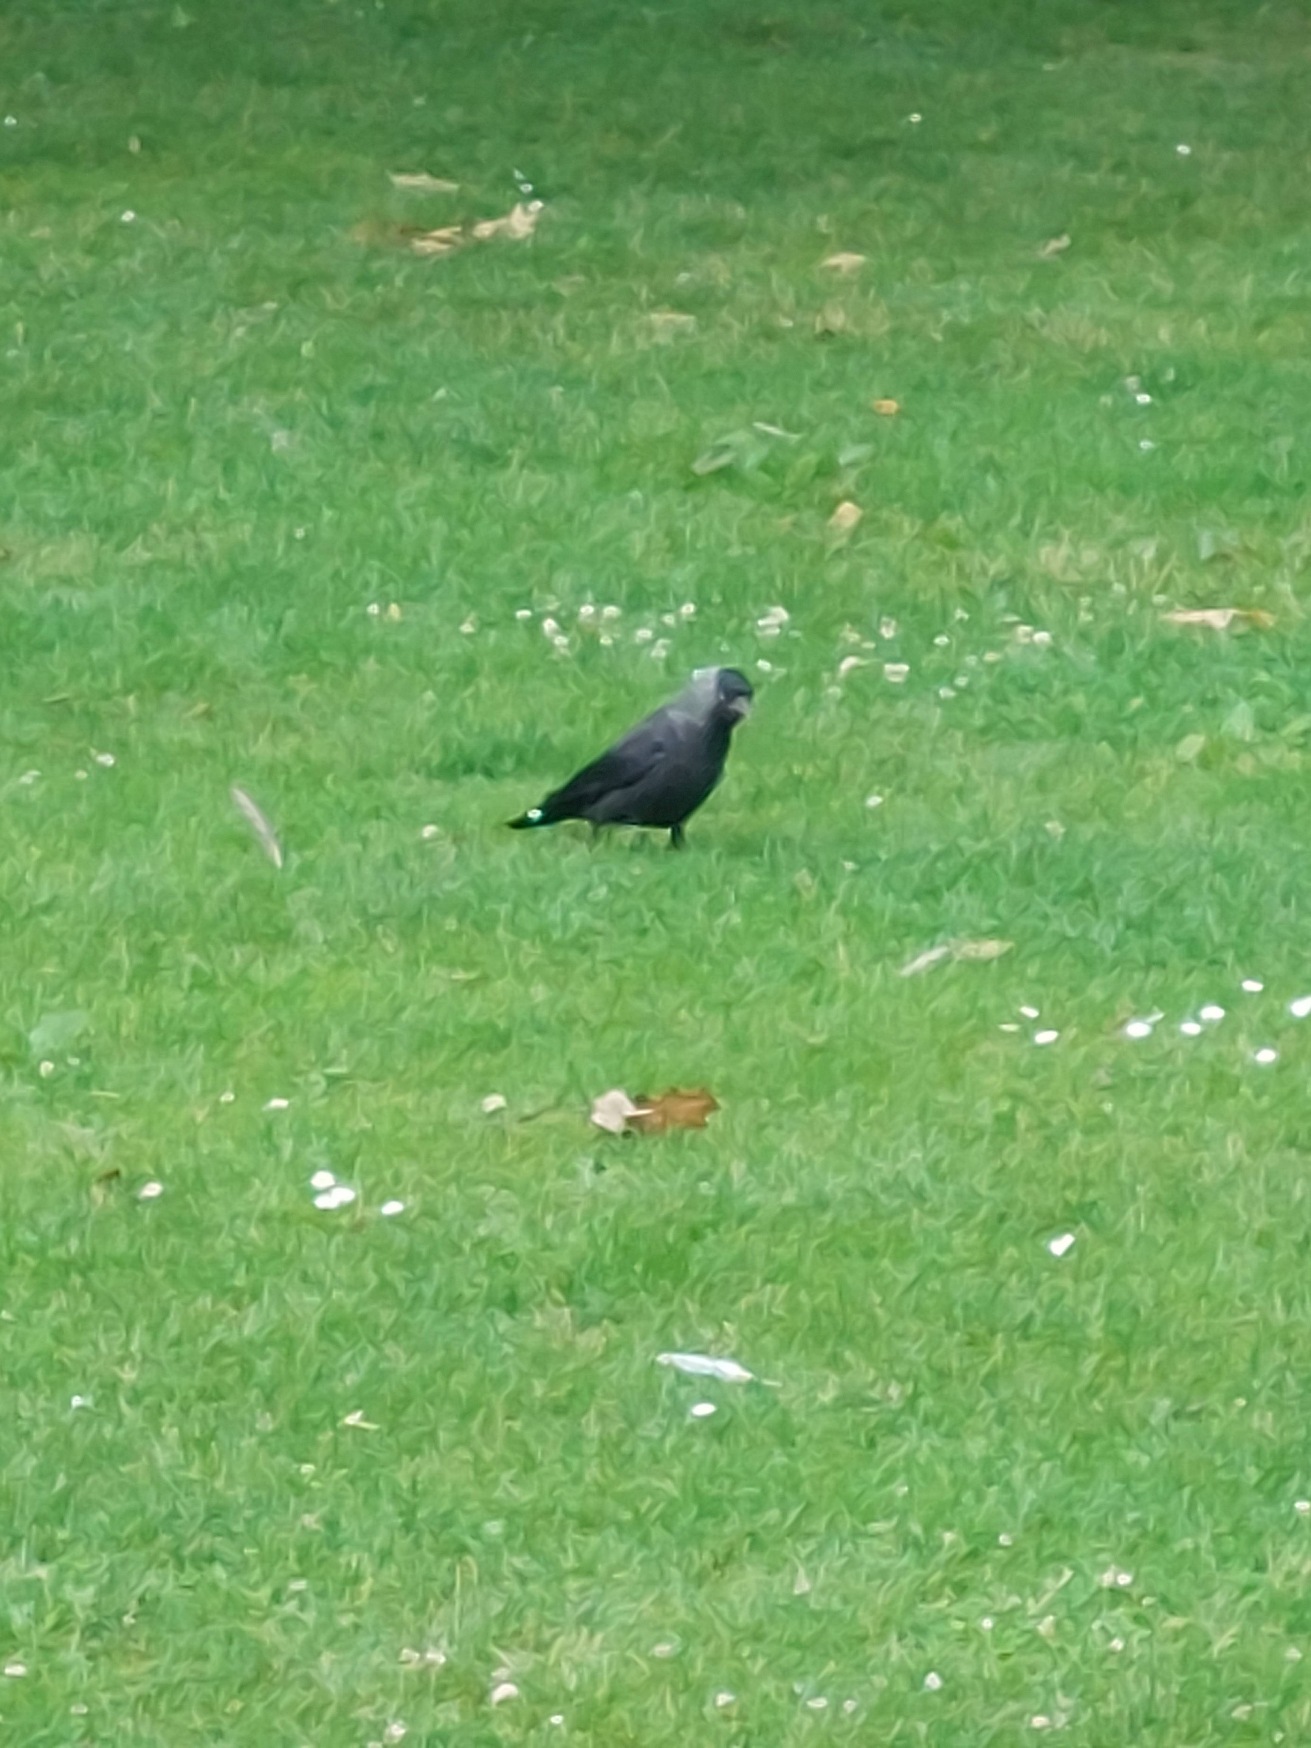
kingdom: Animalia
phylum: Chordata
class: Aves
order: Passeriformes
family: Corvidae
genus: Coloeus
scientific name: Coloeus monedula
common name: Allike
